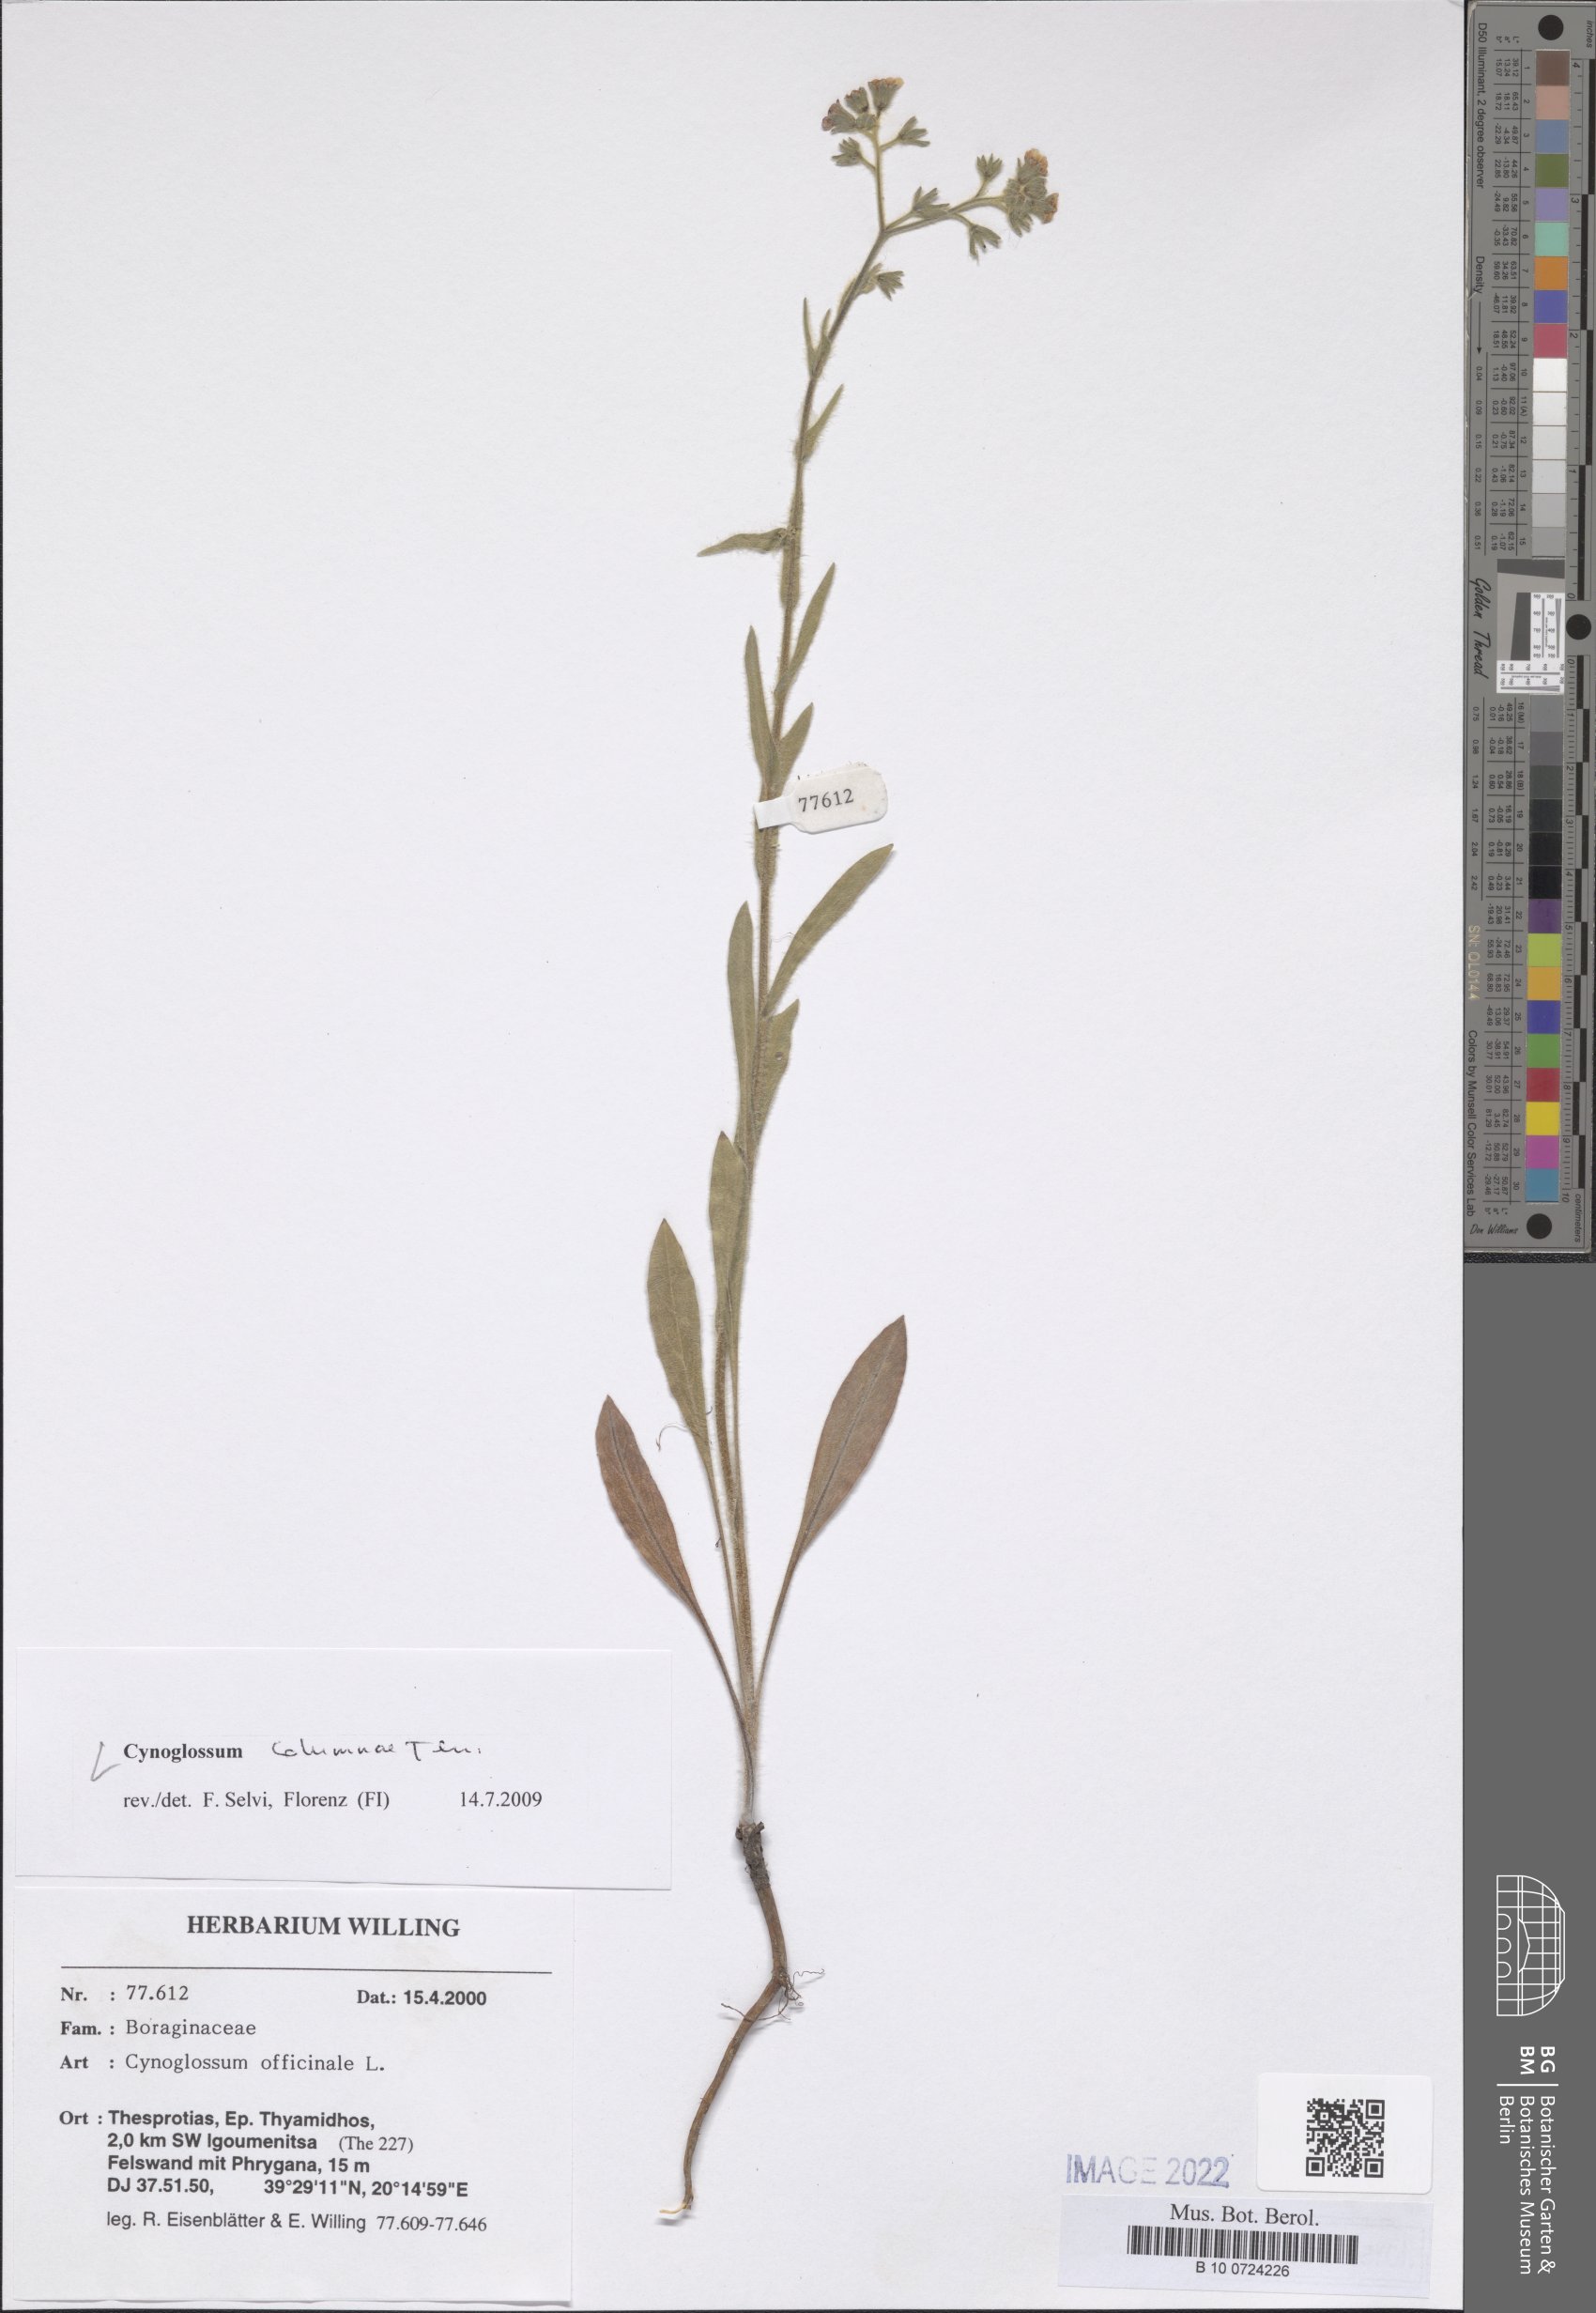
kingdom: Plantae
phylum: Tracheophyta
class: Magnoliopsida
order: Boraginales
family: Boraginaceae
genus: Rindera
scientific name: Rindera columnae
